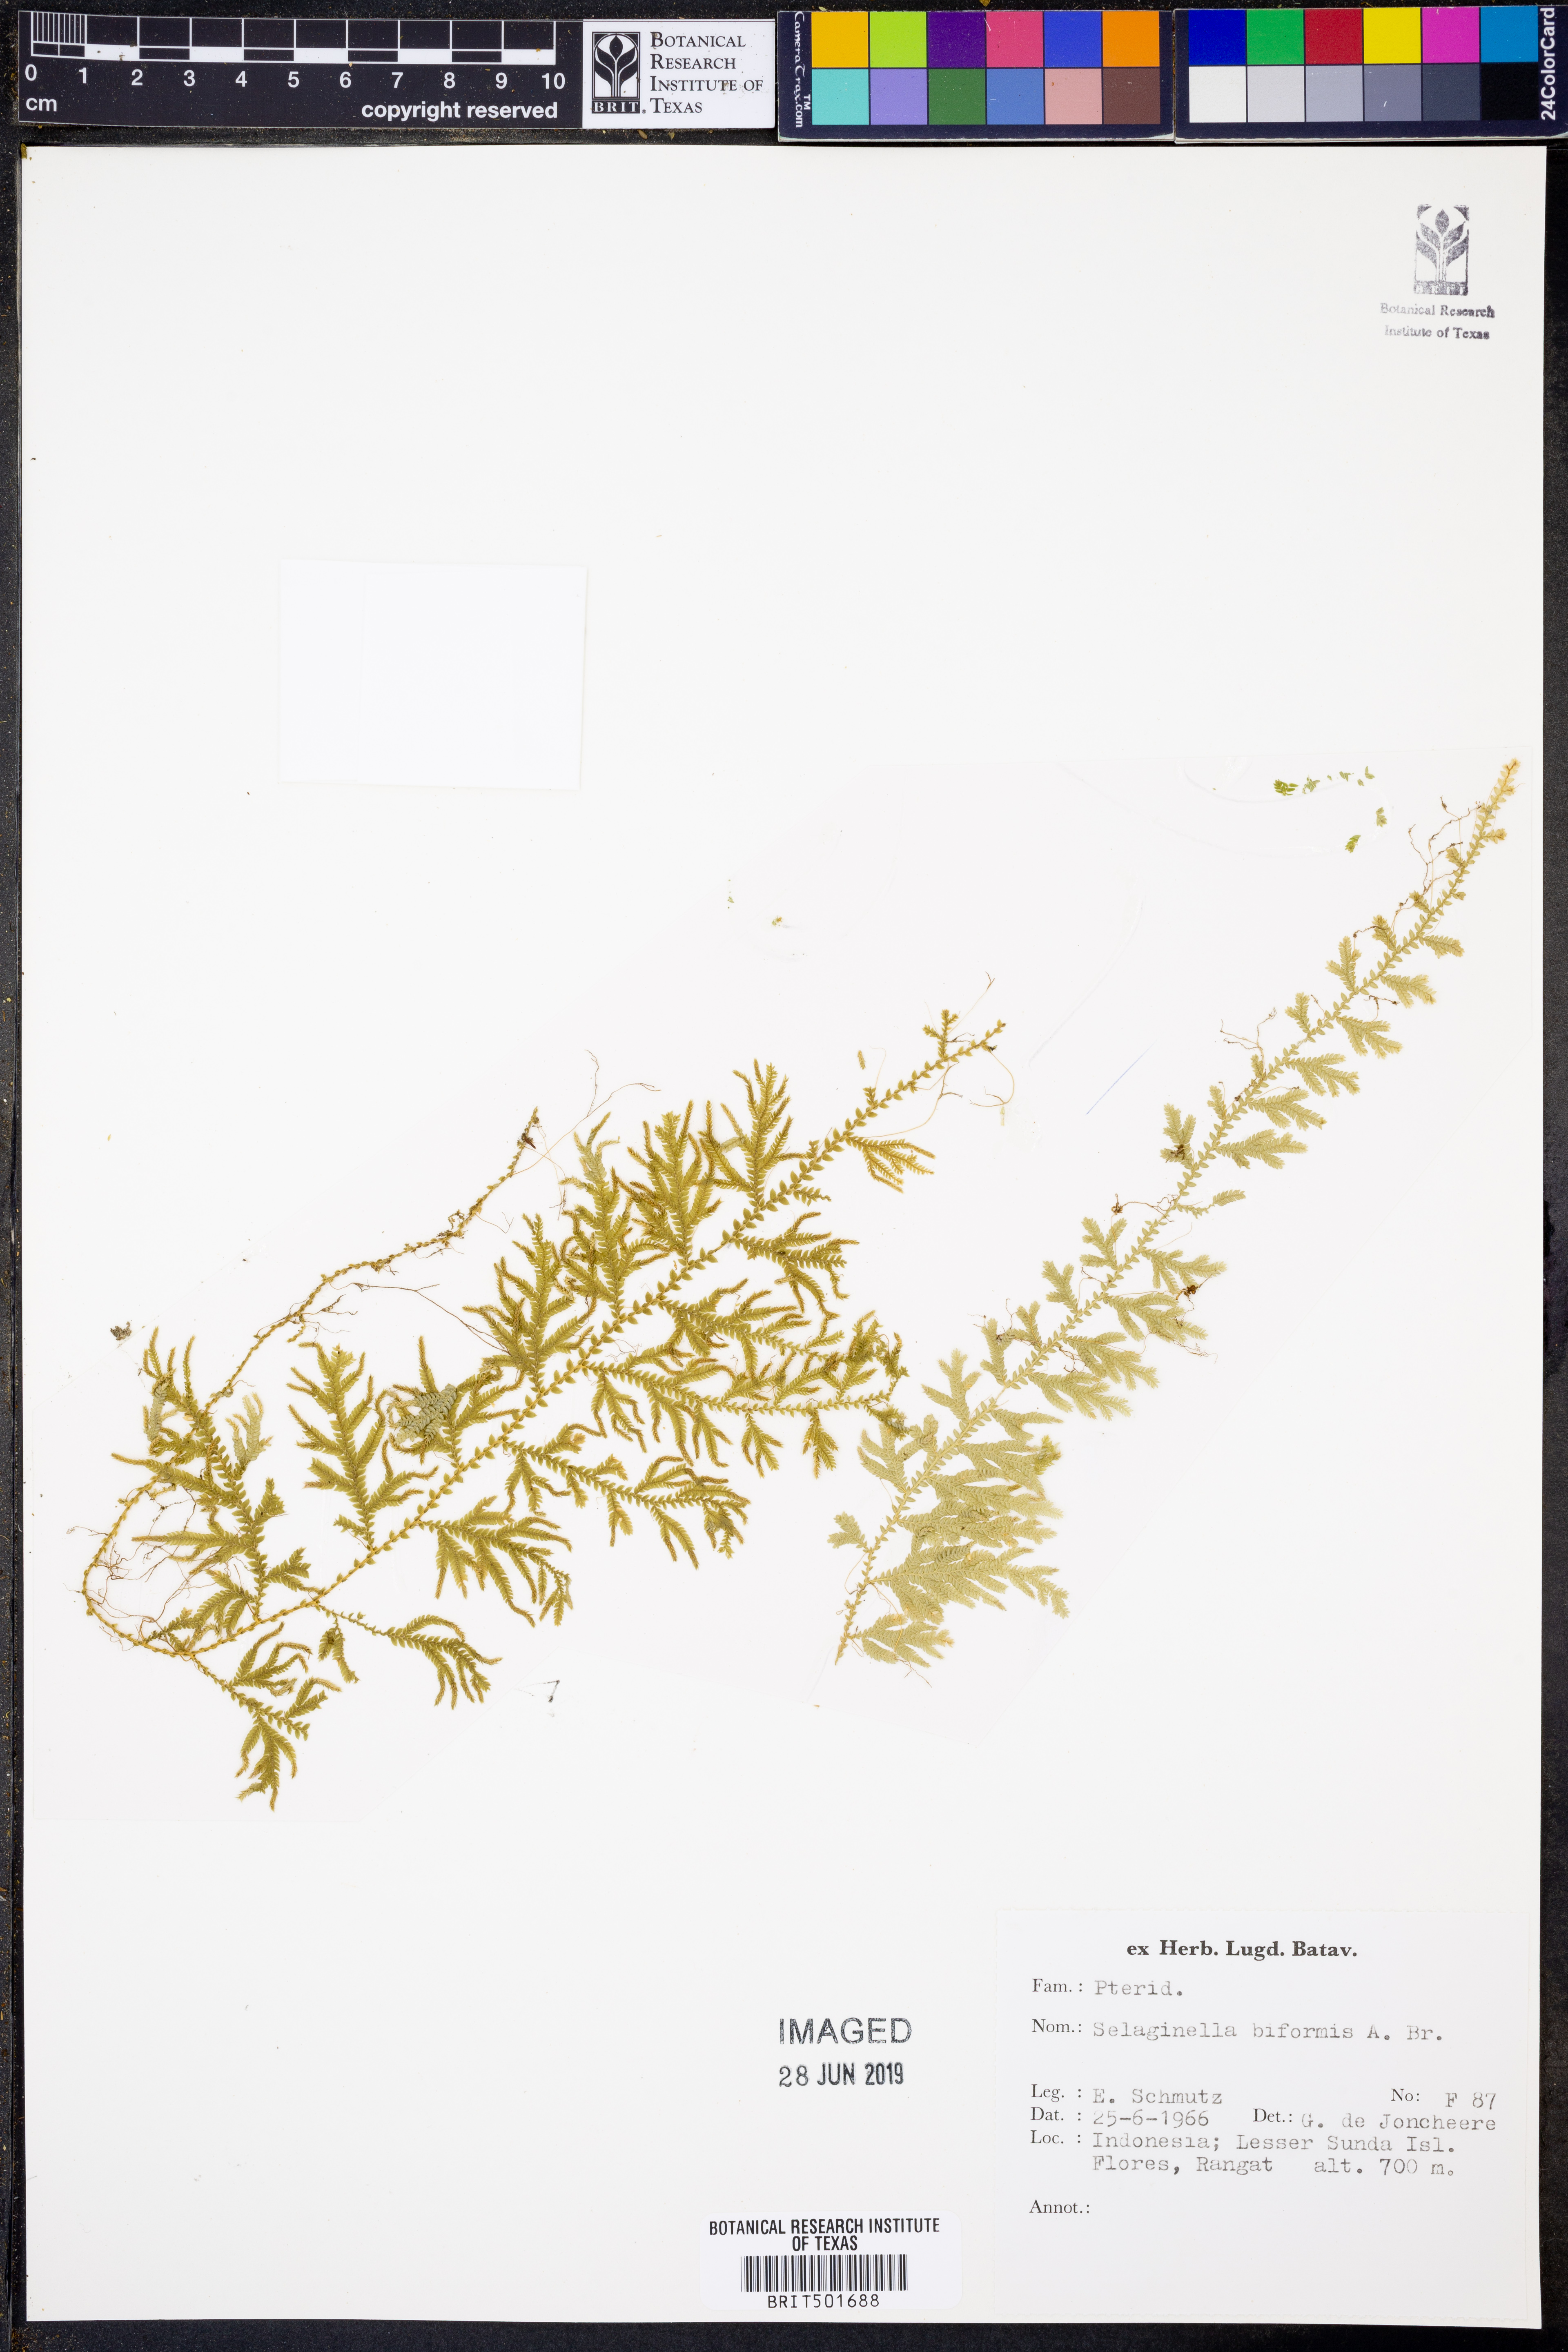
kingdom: Plantae
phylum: Tracheophyta
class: Lycopodiopsida
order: Selaginellales
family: Selaginellaceae
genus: Selaginella
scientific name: Selaginella biformis
